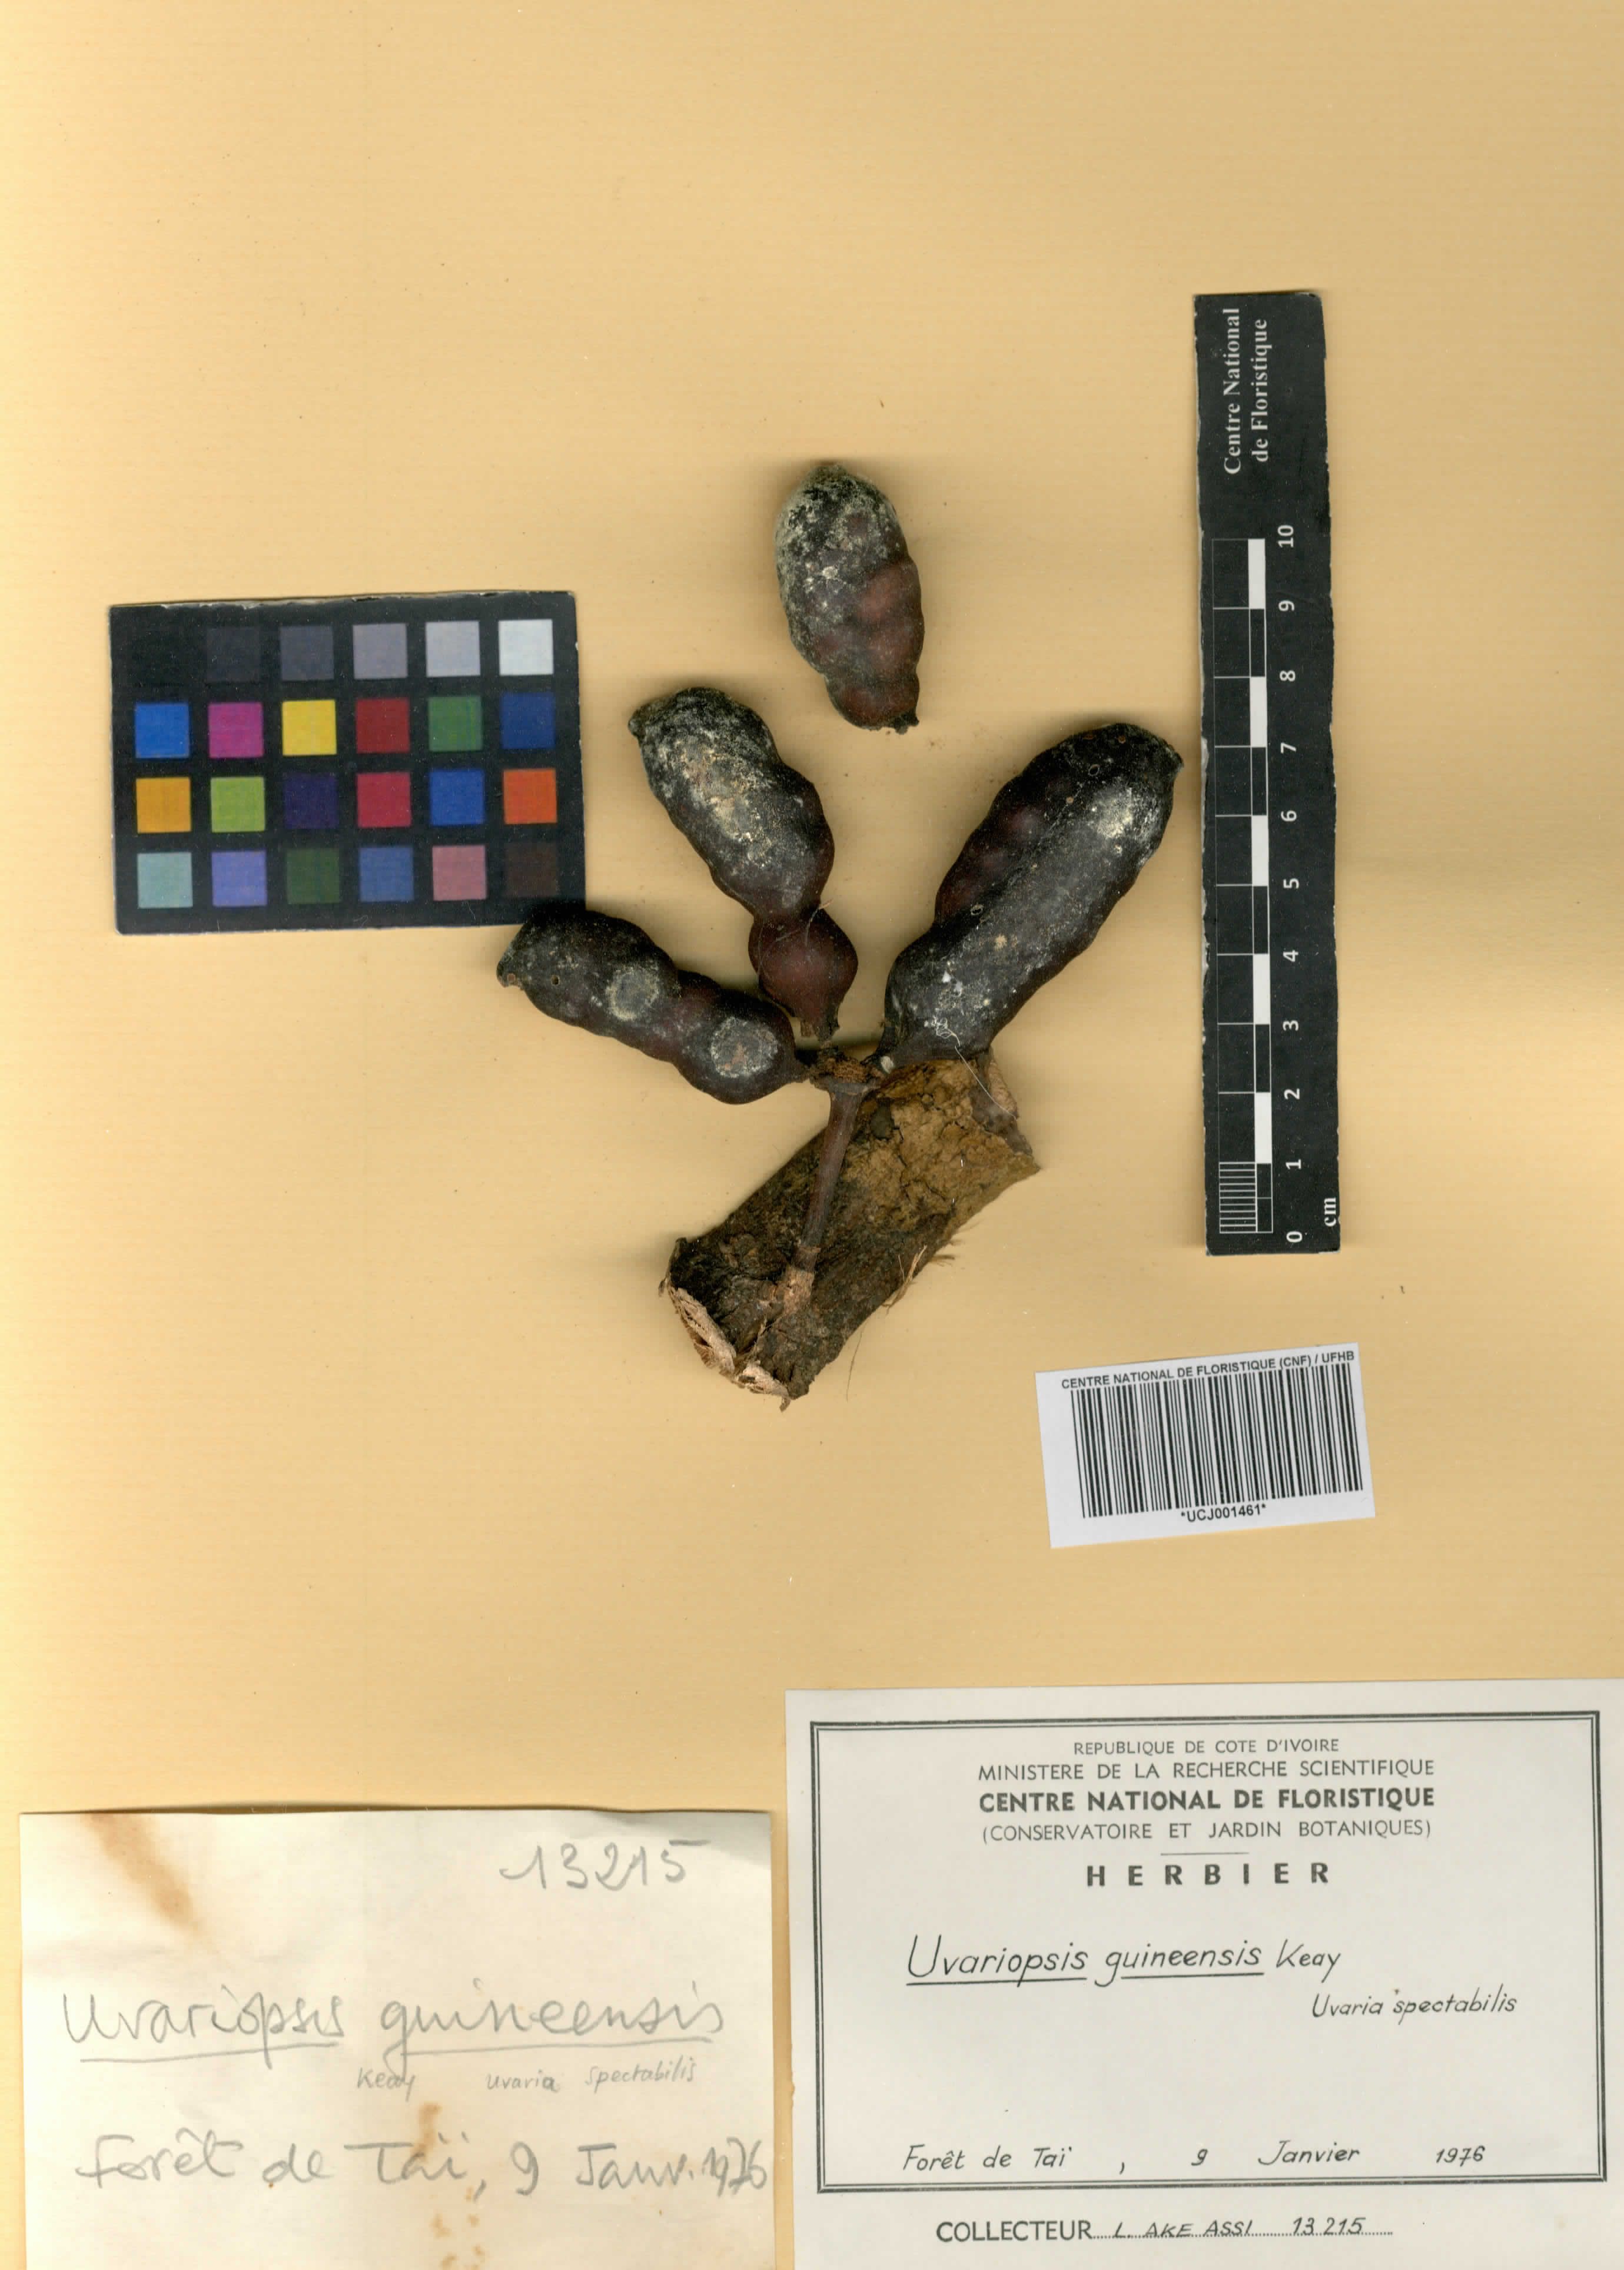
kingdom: Plantae
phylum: Tracheophyta
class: Magnoliopsida
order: Magnoliales
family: Annonaceae
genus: Uvariopsis
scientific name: Uvariopsis guineensis
